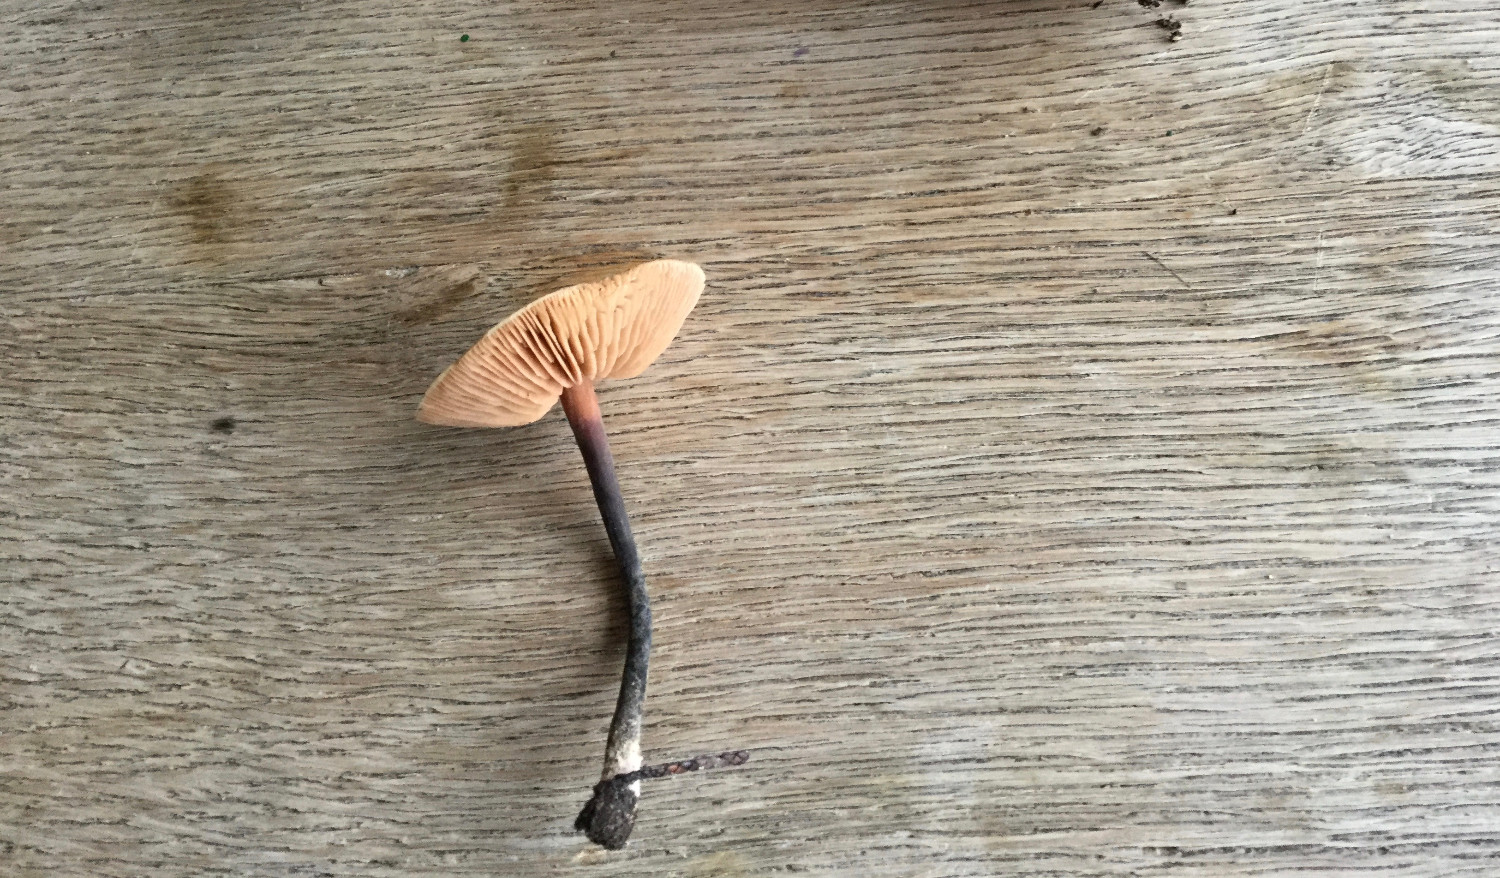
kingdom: Fungi
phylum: Basidiomycota
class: Agaricomycetes
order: Agaricales
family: Macrocystidiaceae
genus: Macrocystidia
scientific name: Macrocystidia cucumis
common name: agurkehat
